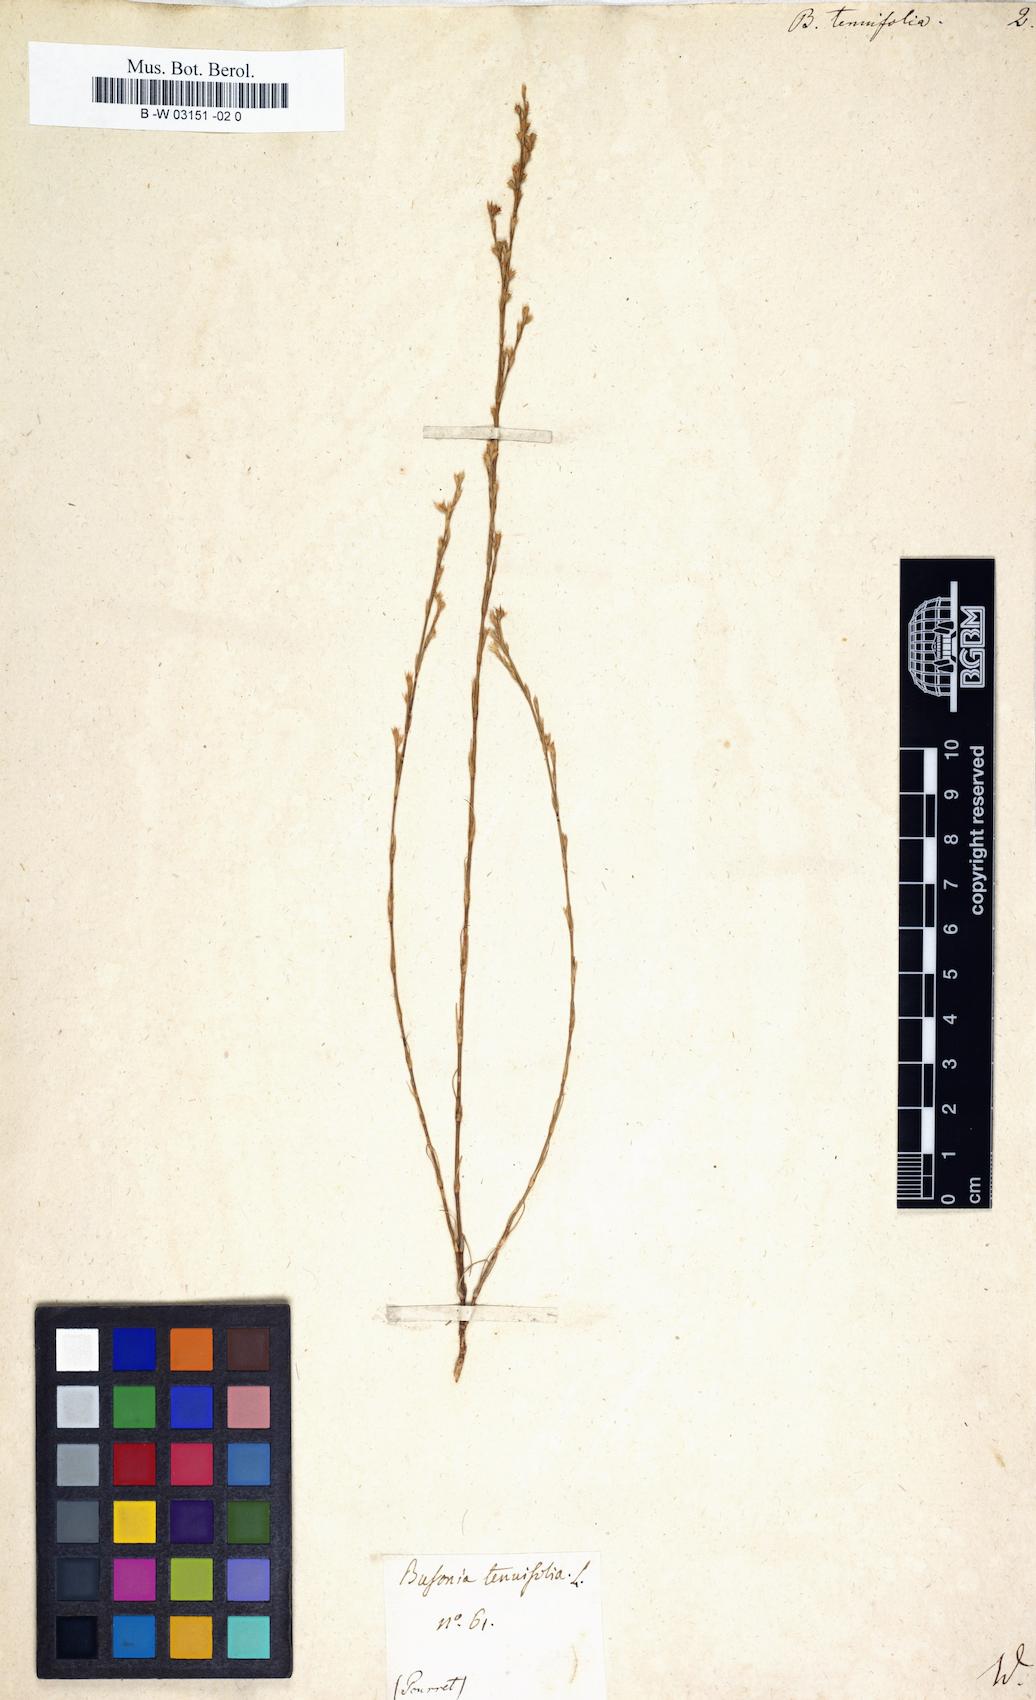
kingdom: Plantae
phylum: Tracheophyta
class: Magnoliopsida
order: Caryophyllales
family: Caryophyllaceae
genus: Bufonia
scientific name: Bufonia tenuifolia
